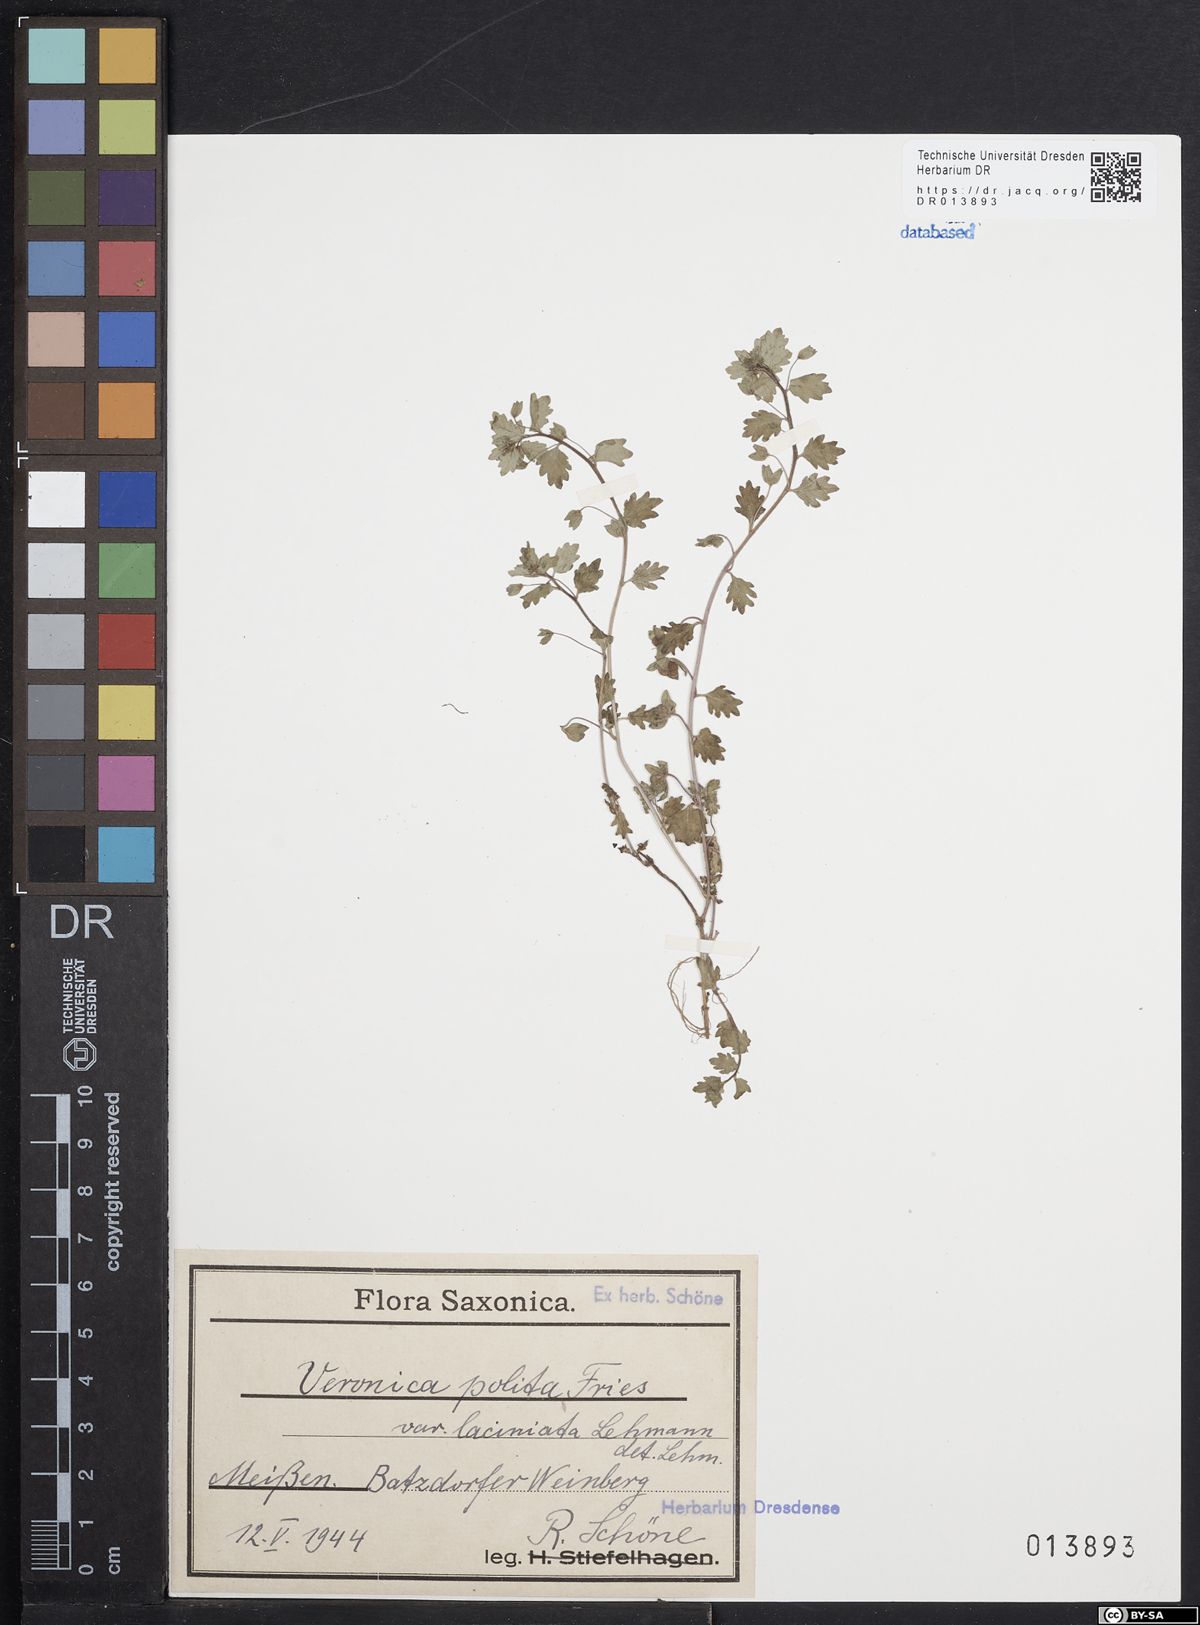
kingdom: Plantae
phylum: Tracheophyta
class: Magnoliopsida
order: Lamiales
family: Plantaginaceae
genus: Veronica
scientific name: Veronica polita
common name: Grey field-speedwell
